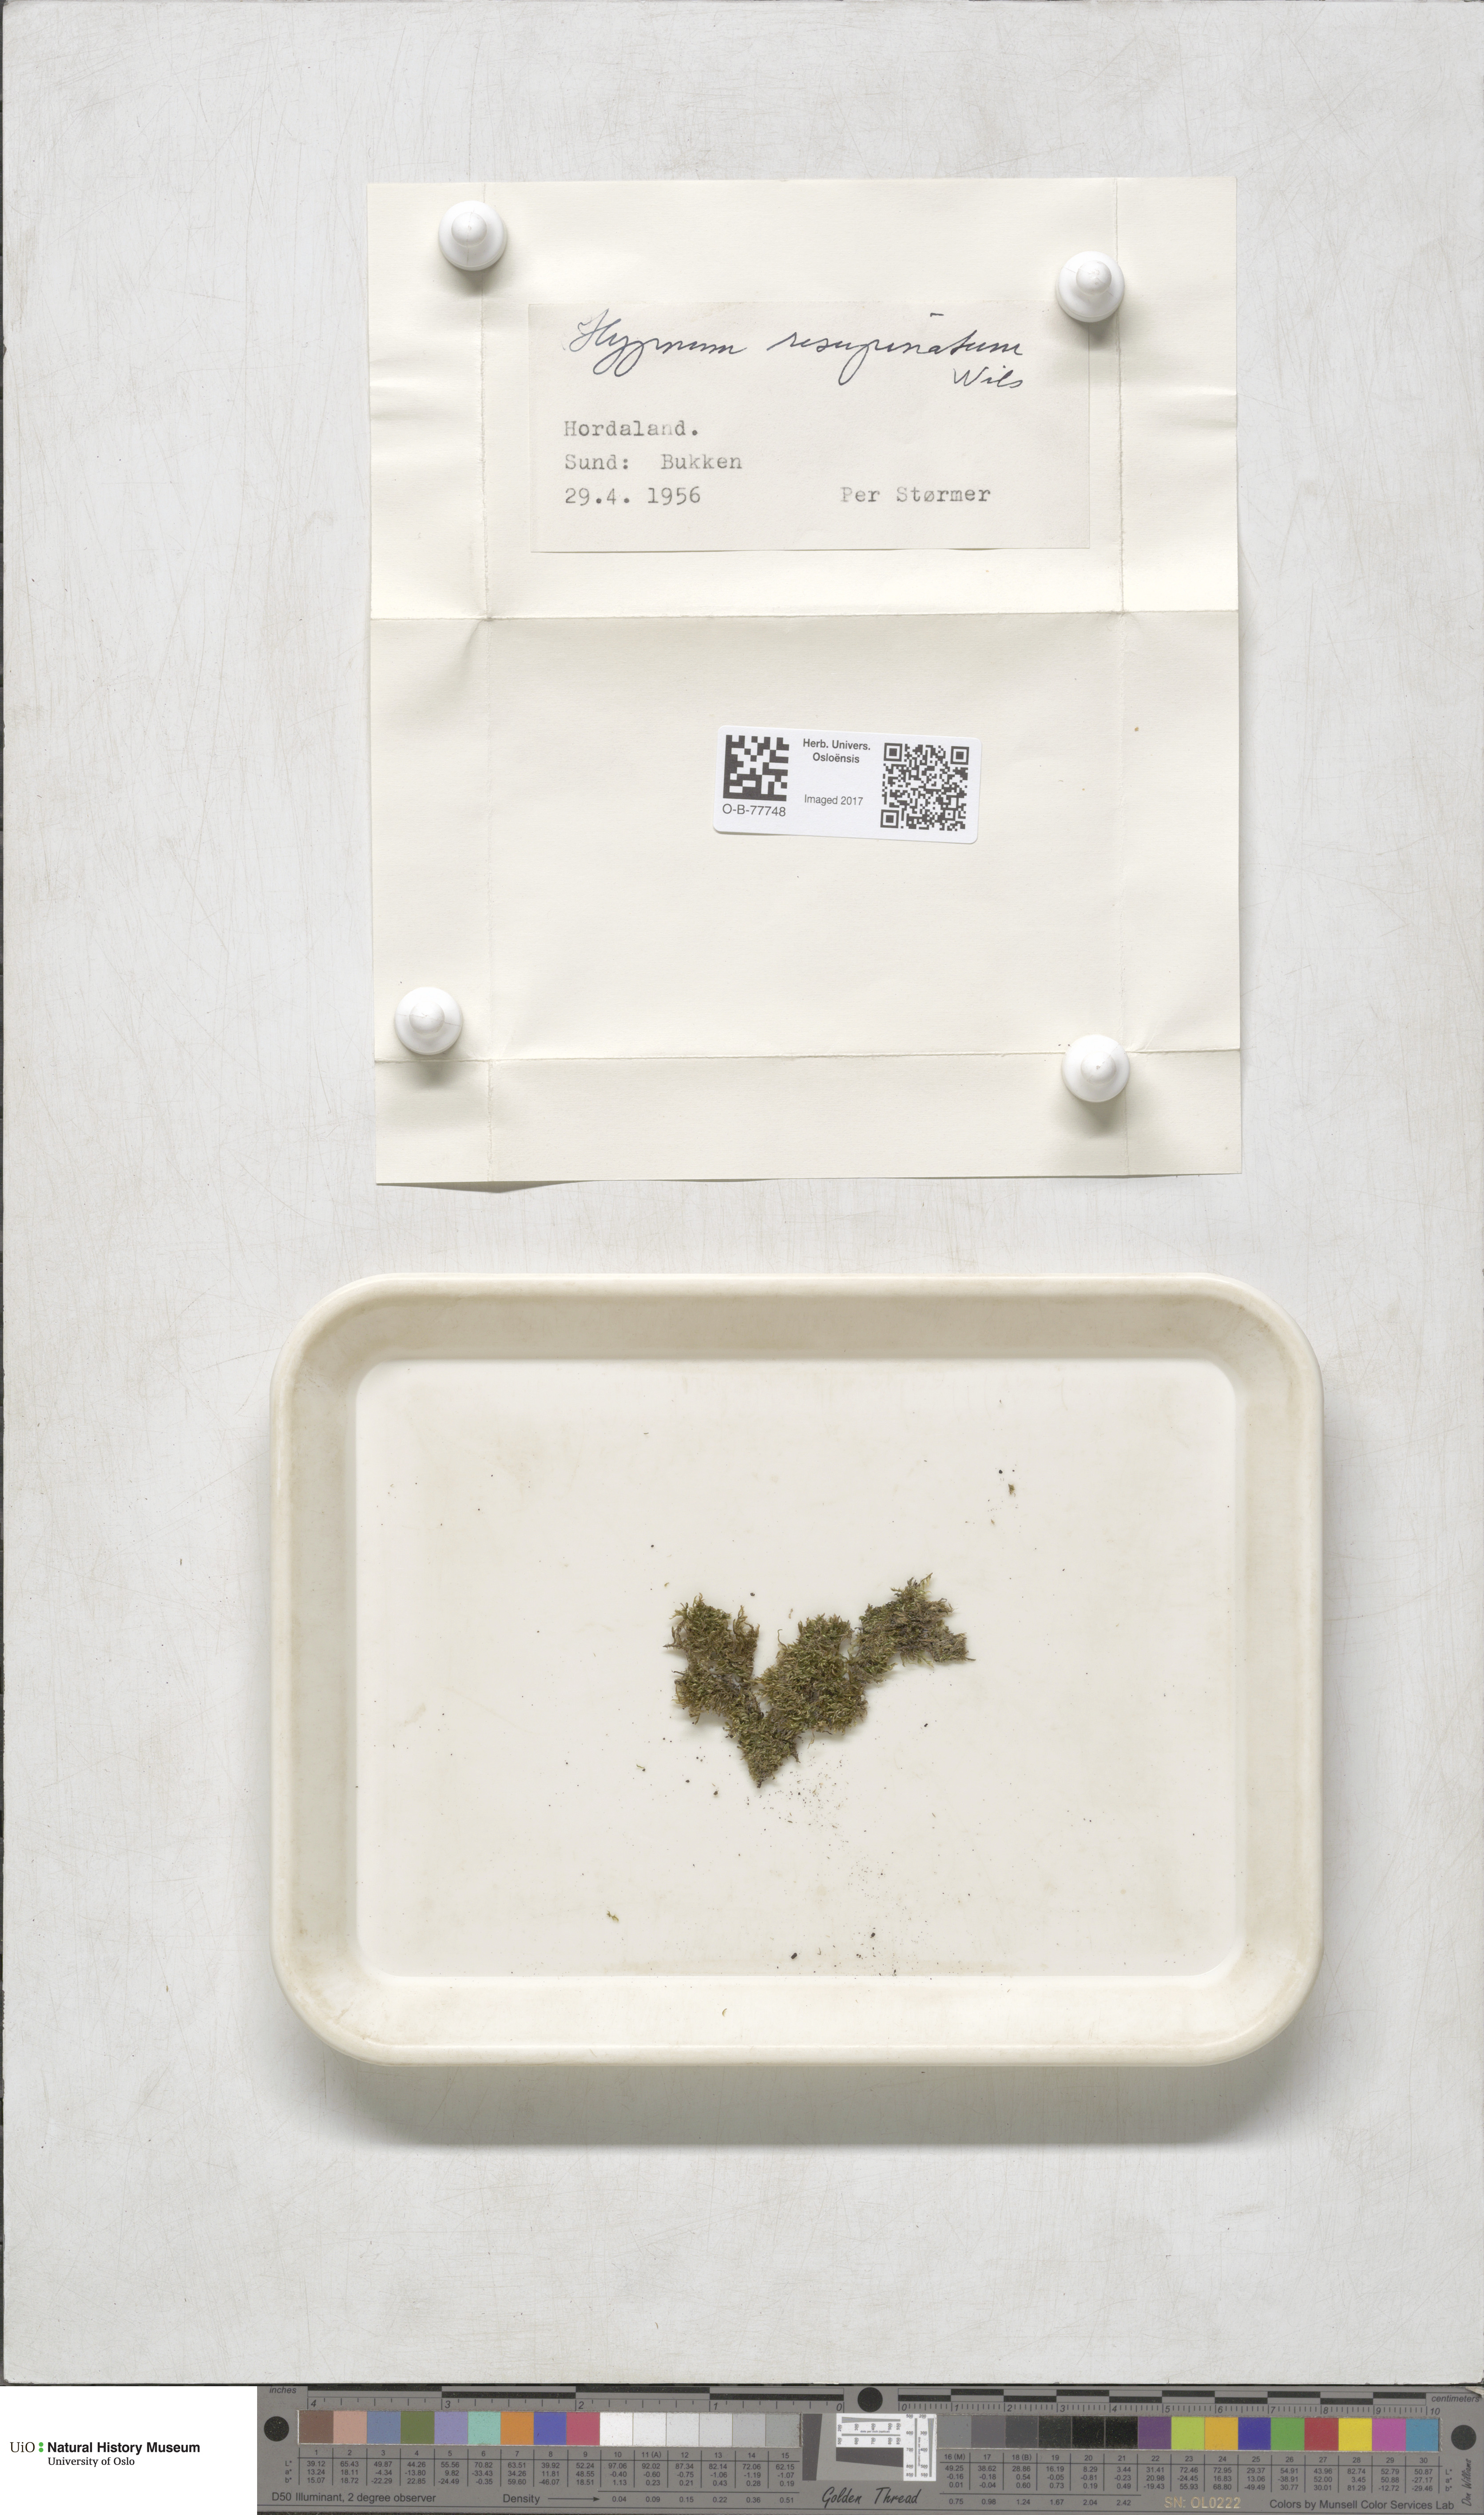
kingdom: Plantae
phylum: Bryophyta
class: Bryopsida
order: Hypnales
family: Hypnaceae
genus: Hypnum
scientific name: Hypnum cupressiforme
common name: Cypress-leaved plait-moss
